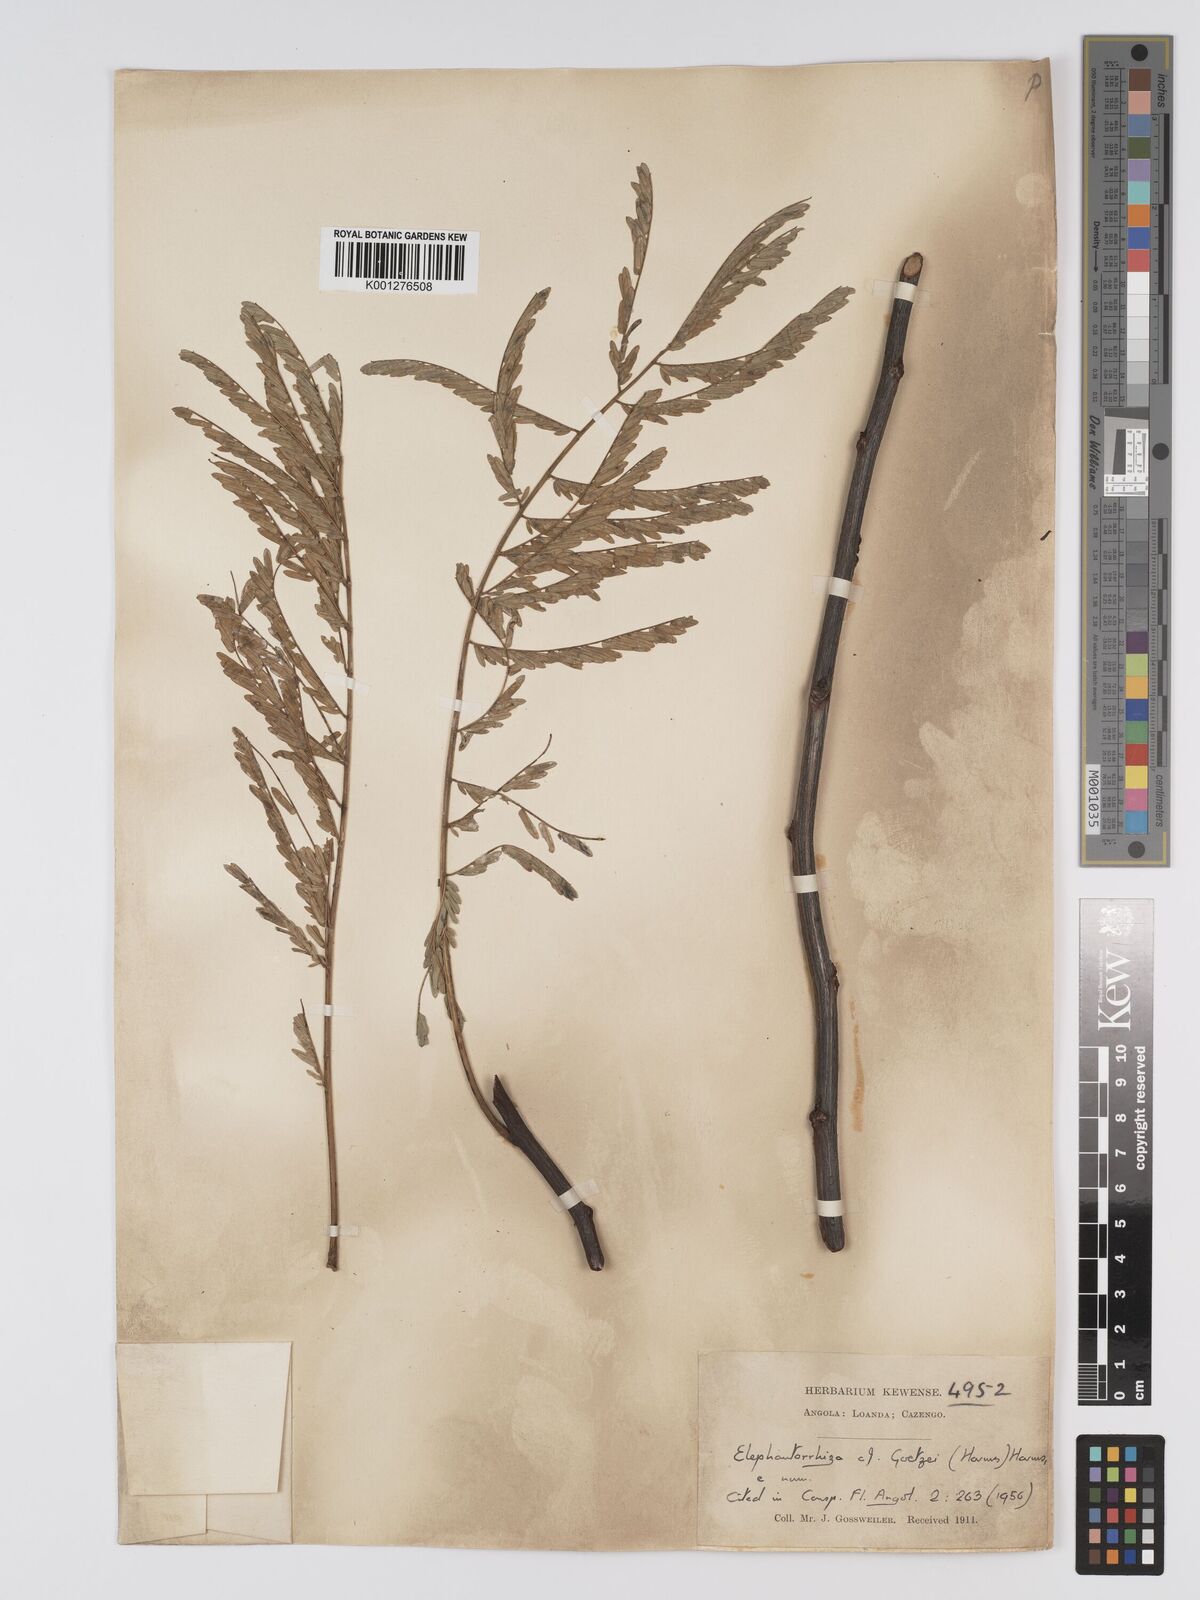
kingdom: Plantae
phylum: Tracheophyta
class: Magnoliopsida
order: Fabales
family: Fabaceae
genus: Elephantorrhiza
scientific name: Elephantorrhiza goetzei
